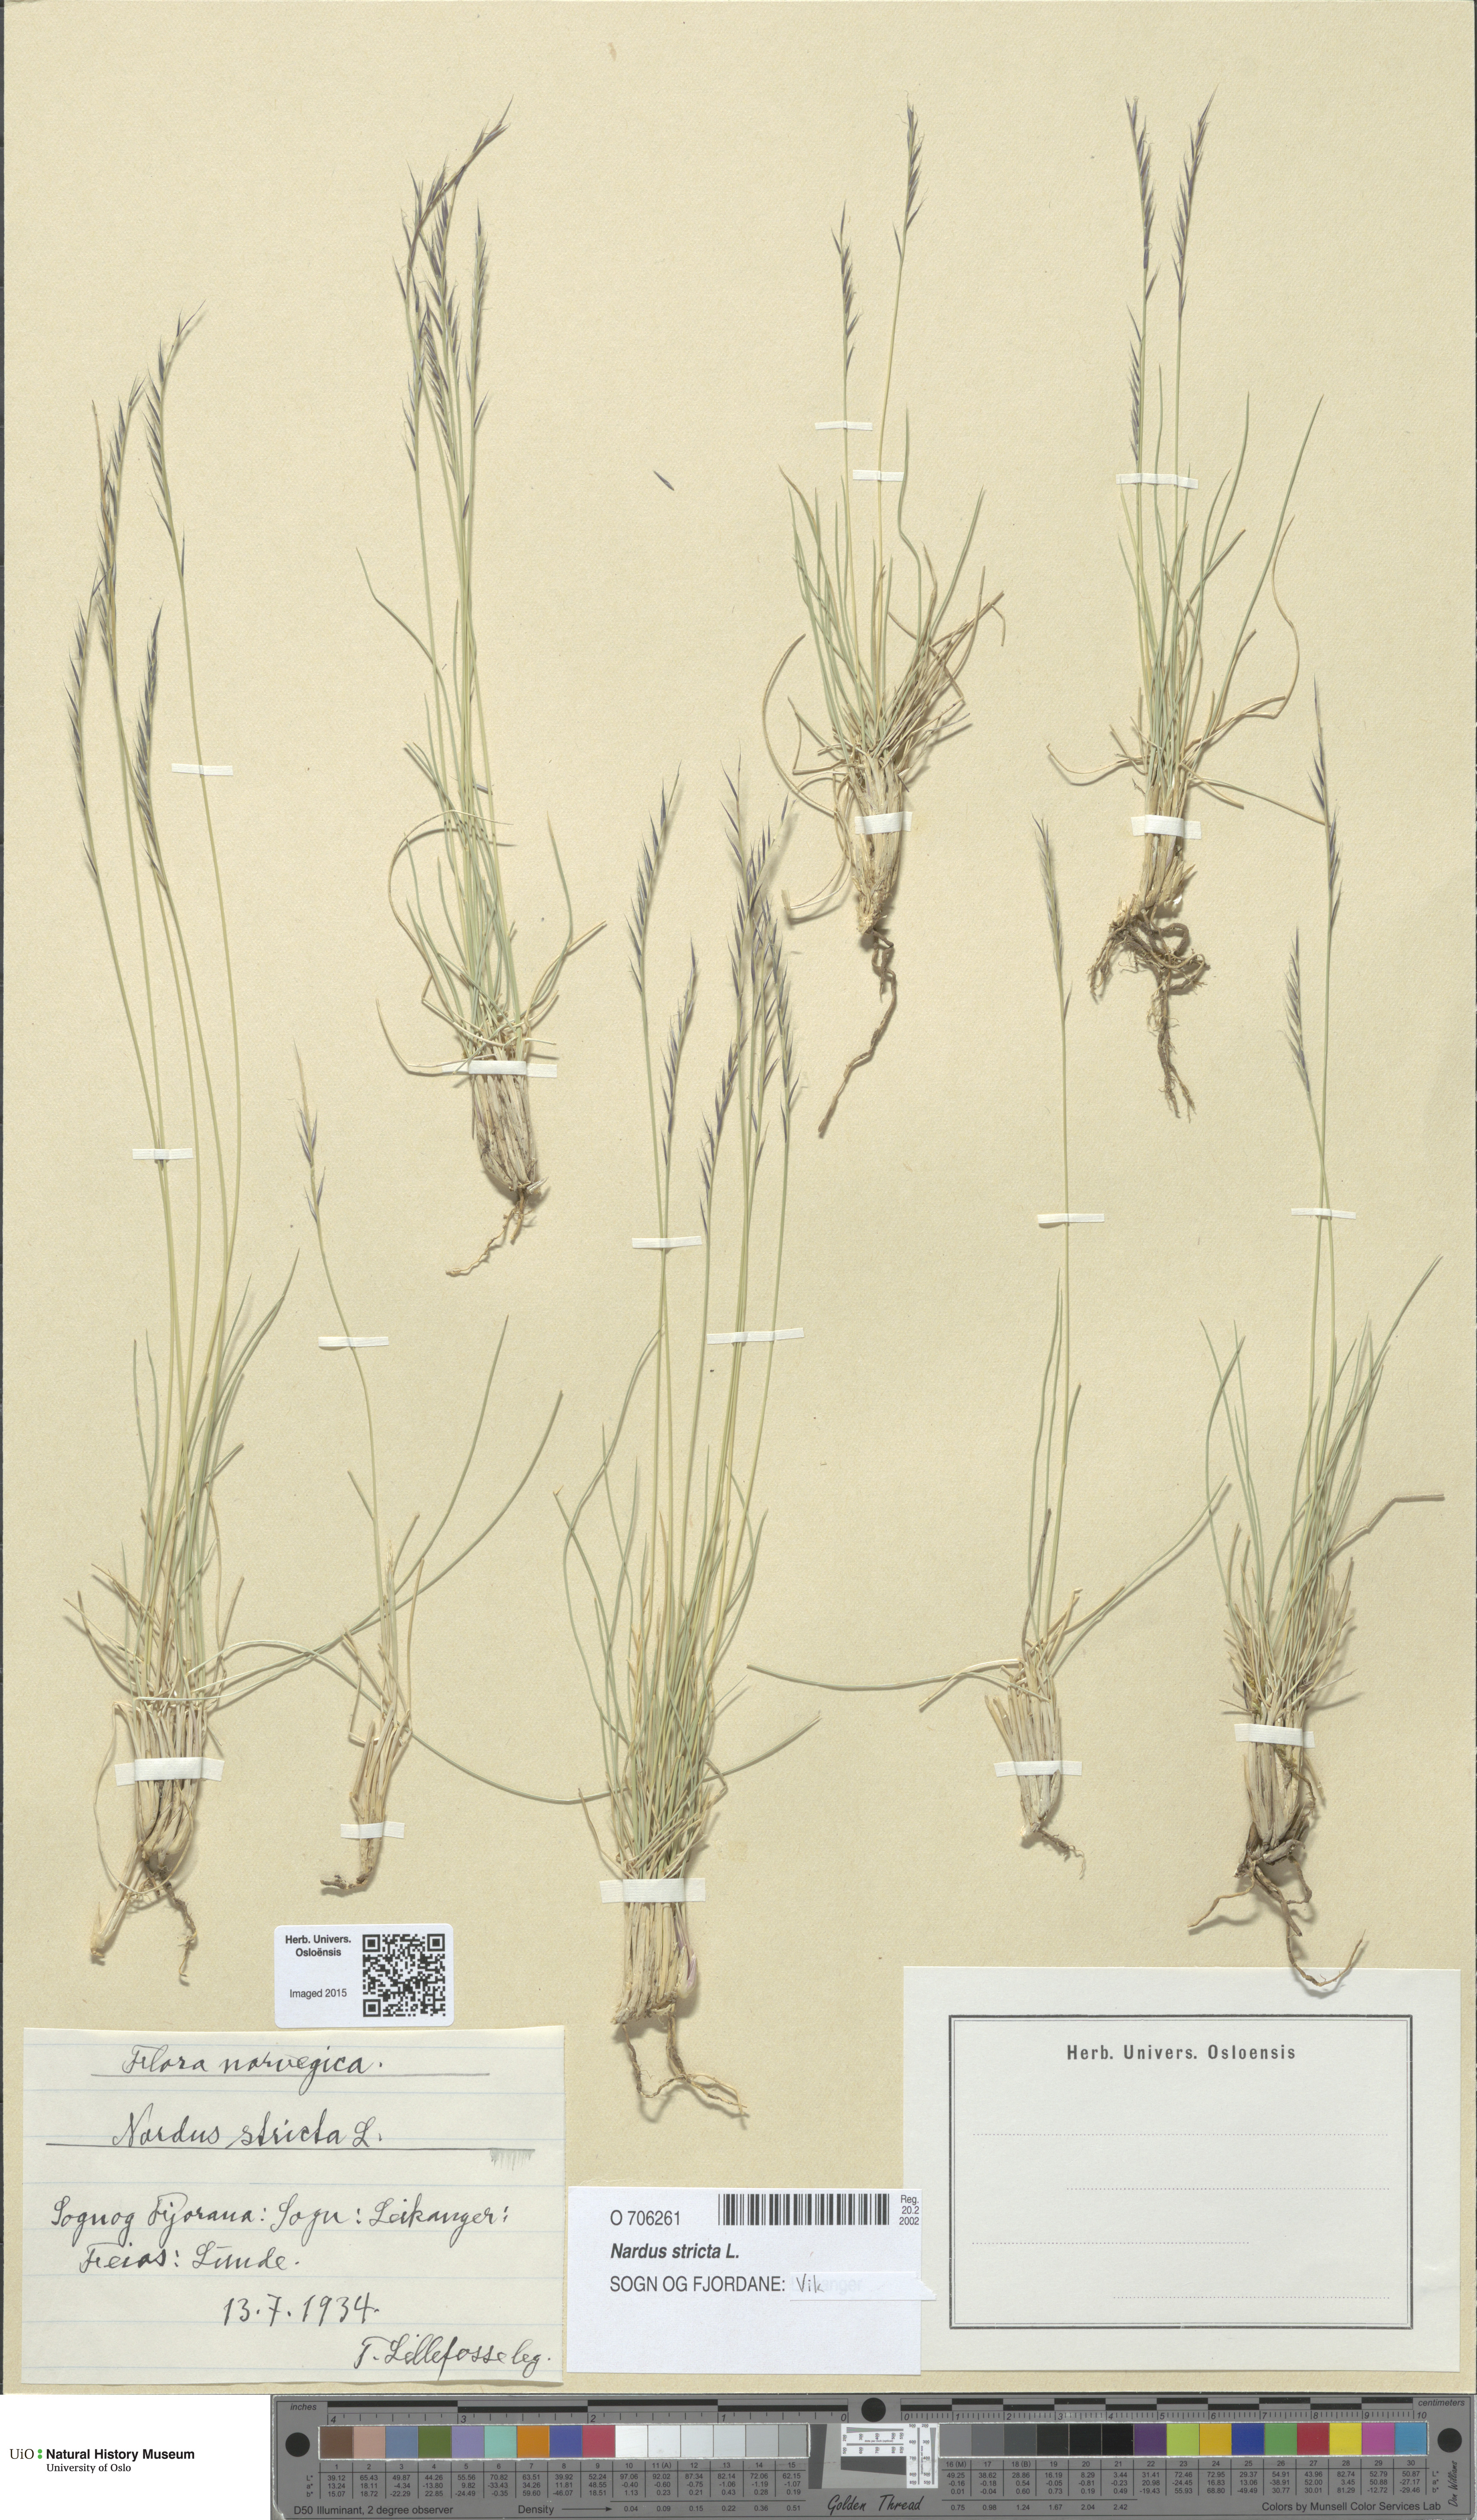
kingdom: Plantae
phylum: Tracheophyta
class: Liliopsida
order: Poales
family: Poaceae
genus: Nardus
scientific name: Nardus stricta
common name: Mat-grass
